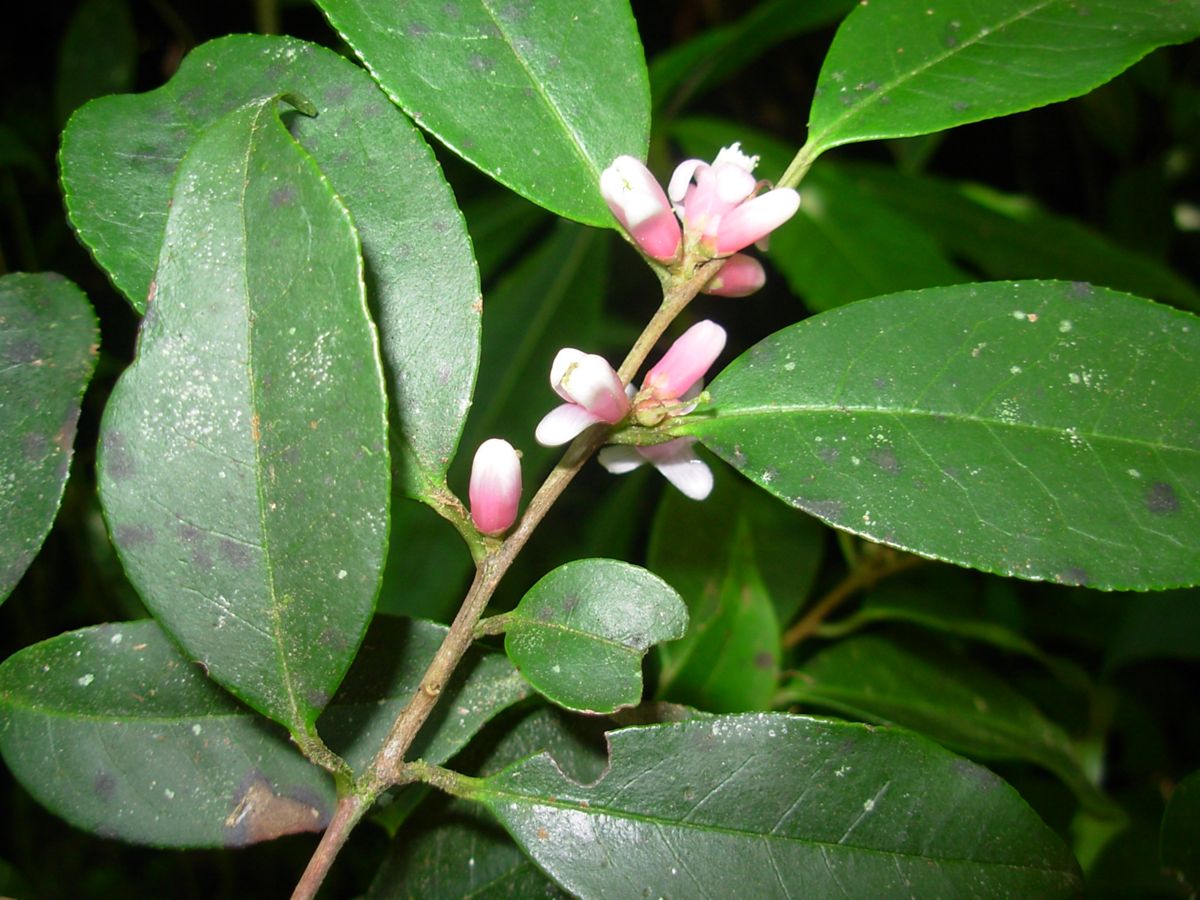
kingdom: Plantae
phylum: Tracheophyta
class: Magnoliopsida
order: Ericales
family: Symplocaceae
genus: Symplocos
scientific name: Symplocos pycnantha
